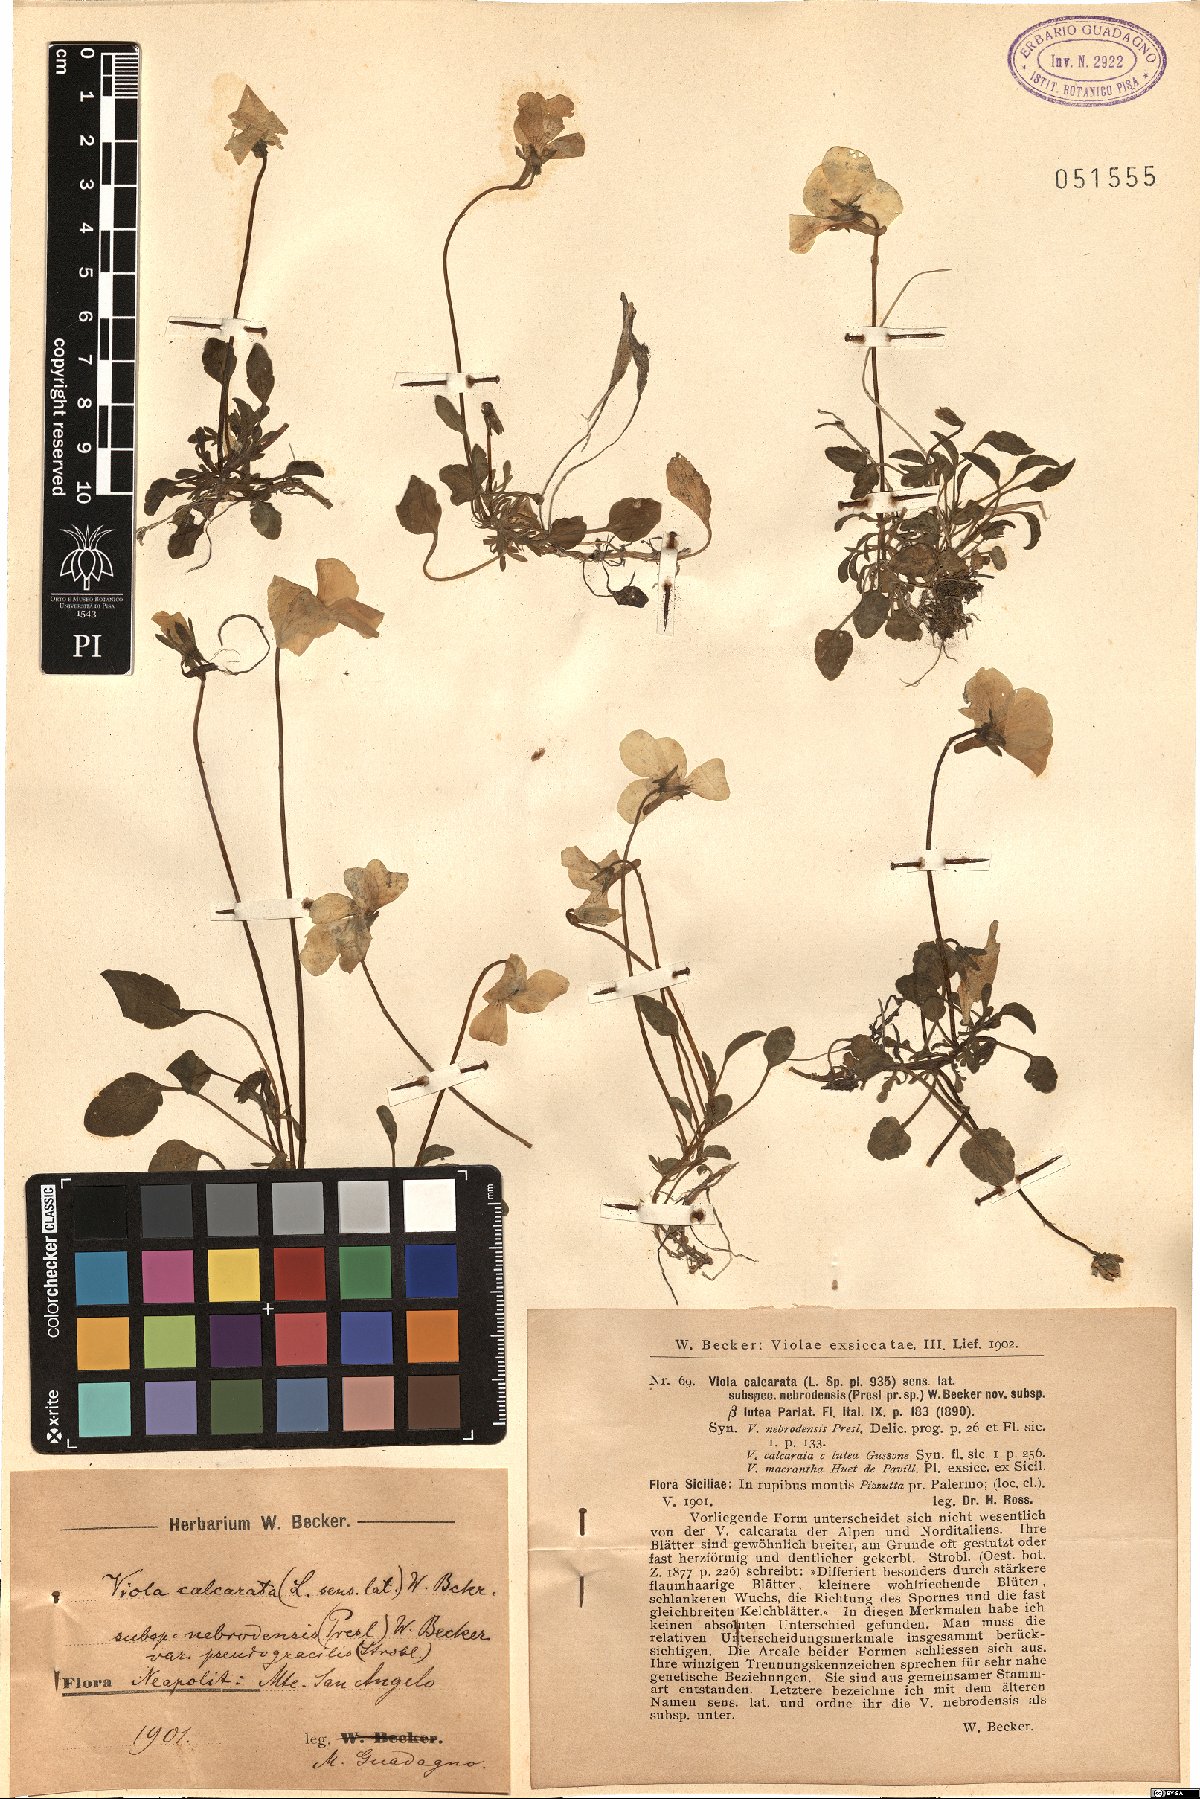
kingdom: Plantae
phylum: Tracheophyta
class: Magnoliopsida
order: Malpighiales
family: Violaceae
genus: Viola
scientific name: Viola calcarata
